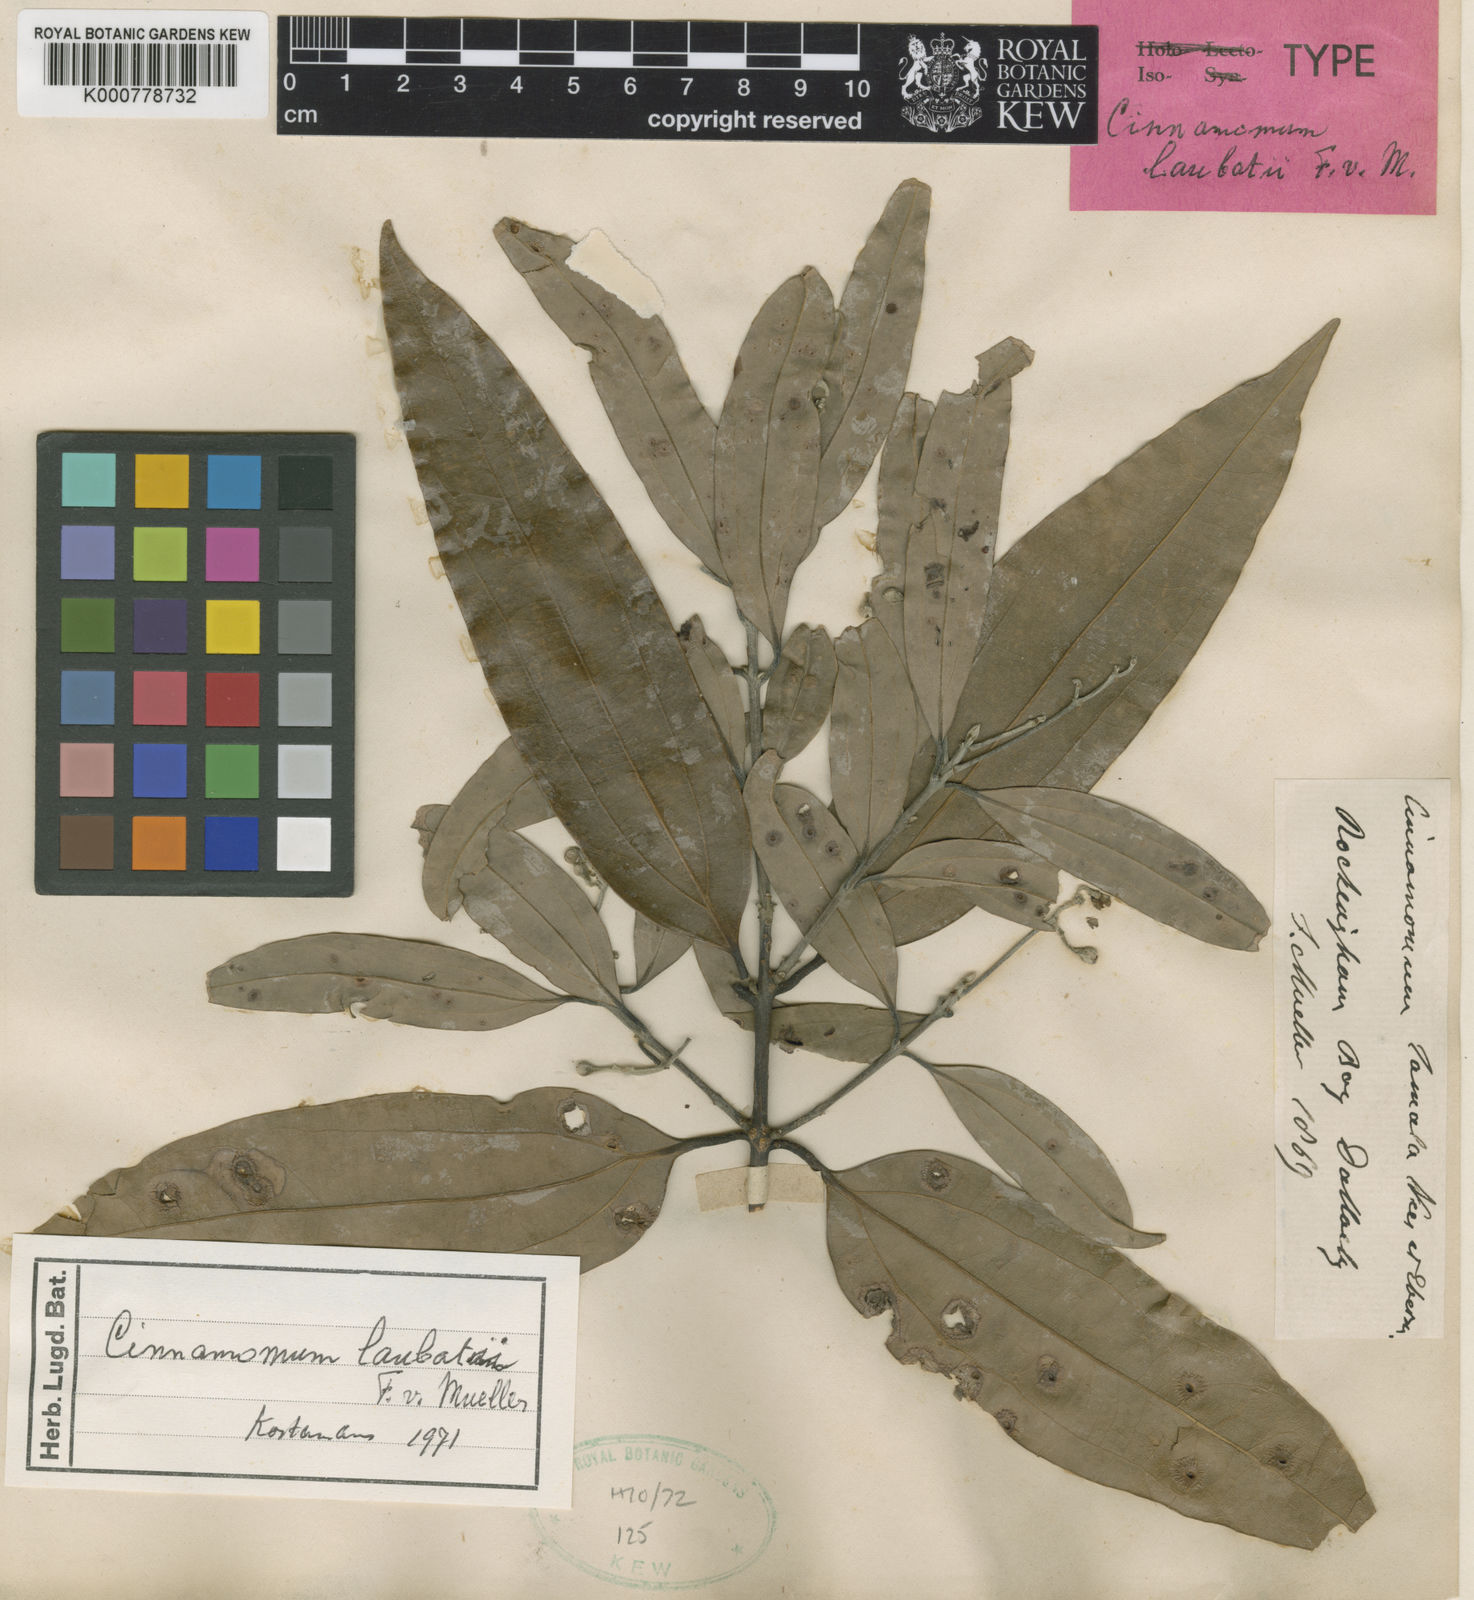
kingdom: Plantae
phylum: Tracheophyta
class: Magnoliopsida
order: Laurales
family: Lauraceae
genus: Cinnamomum
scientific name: Cinnamomum laubatii
